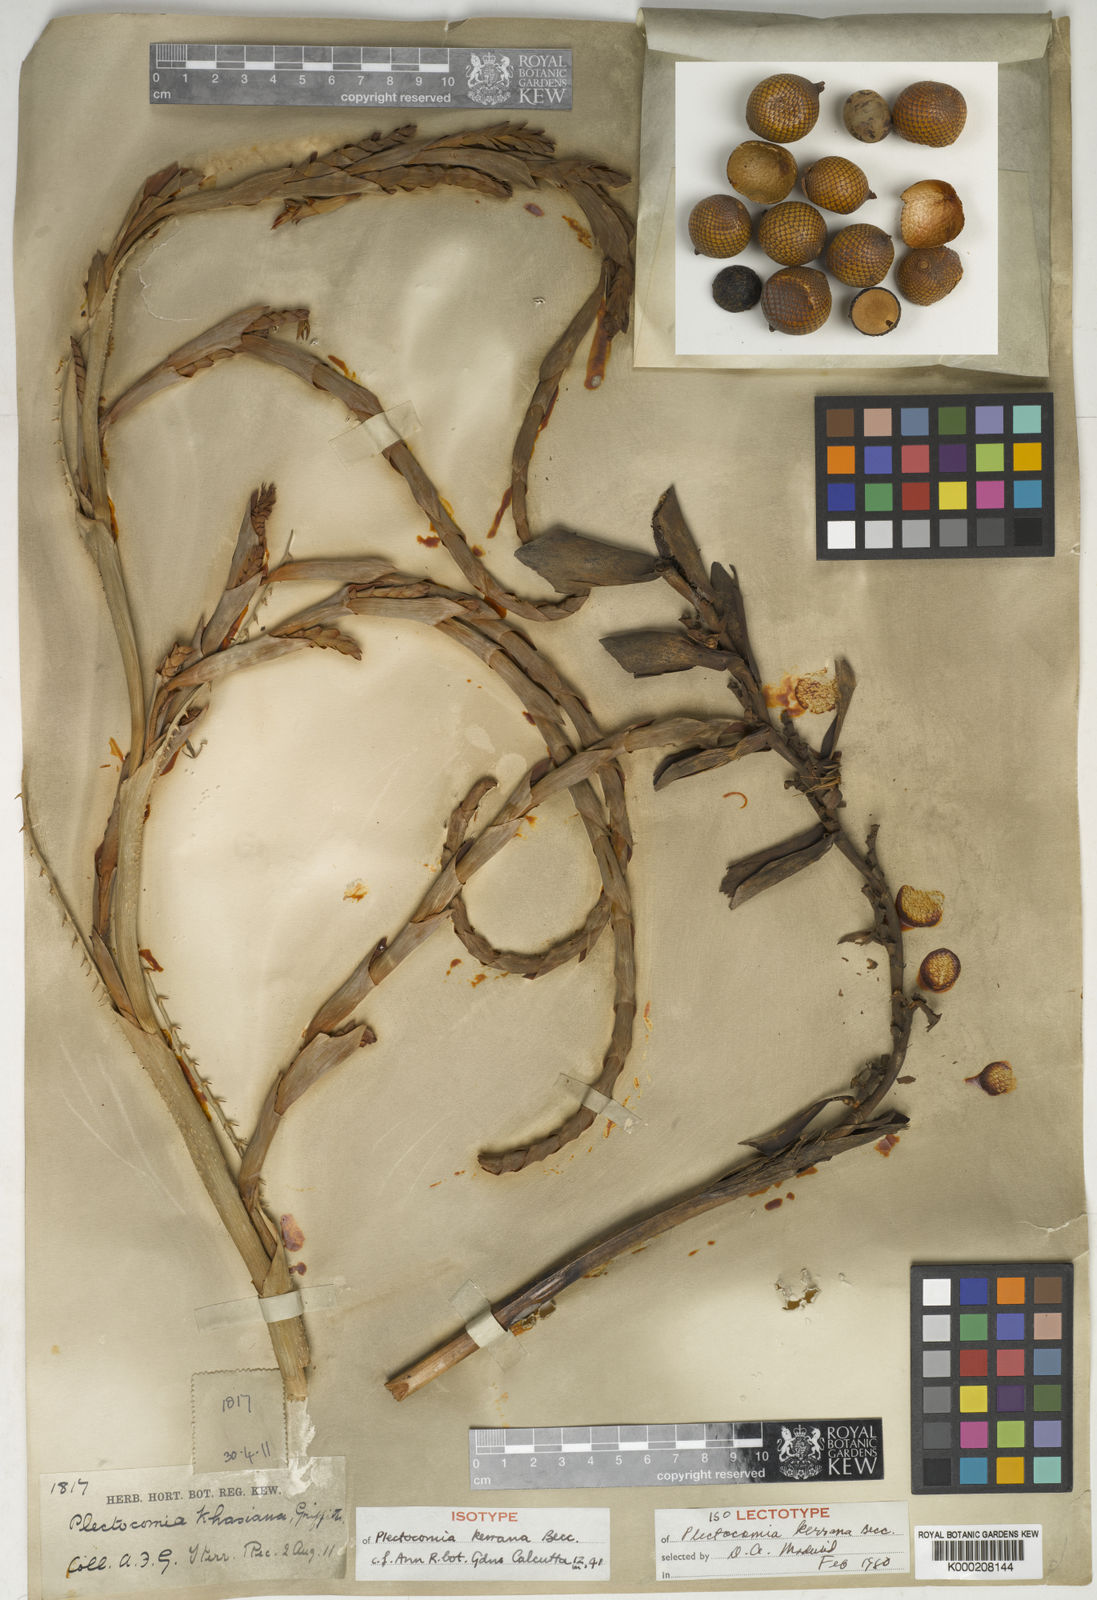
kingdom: Plantae
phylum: Tracheophyta
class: Liliopsida
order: Arecales
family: Arecaceae
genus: Plectocomia
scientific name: Plectocomia pierreana
